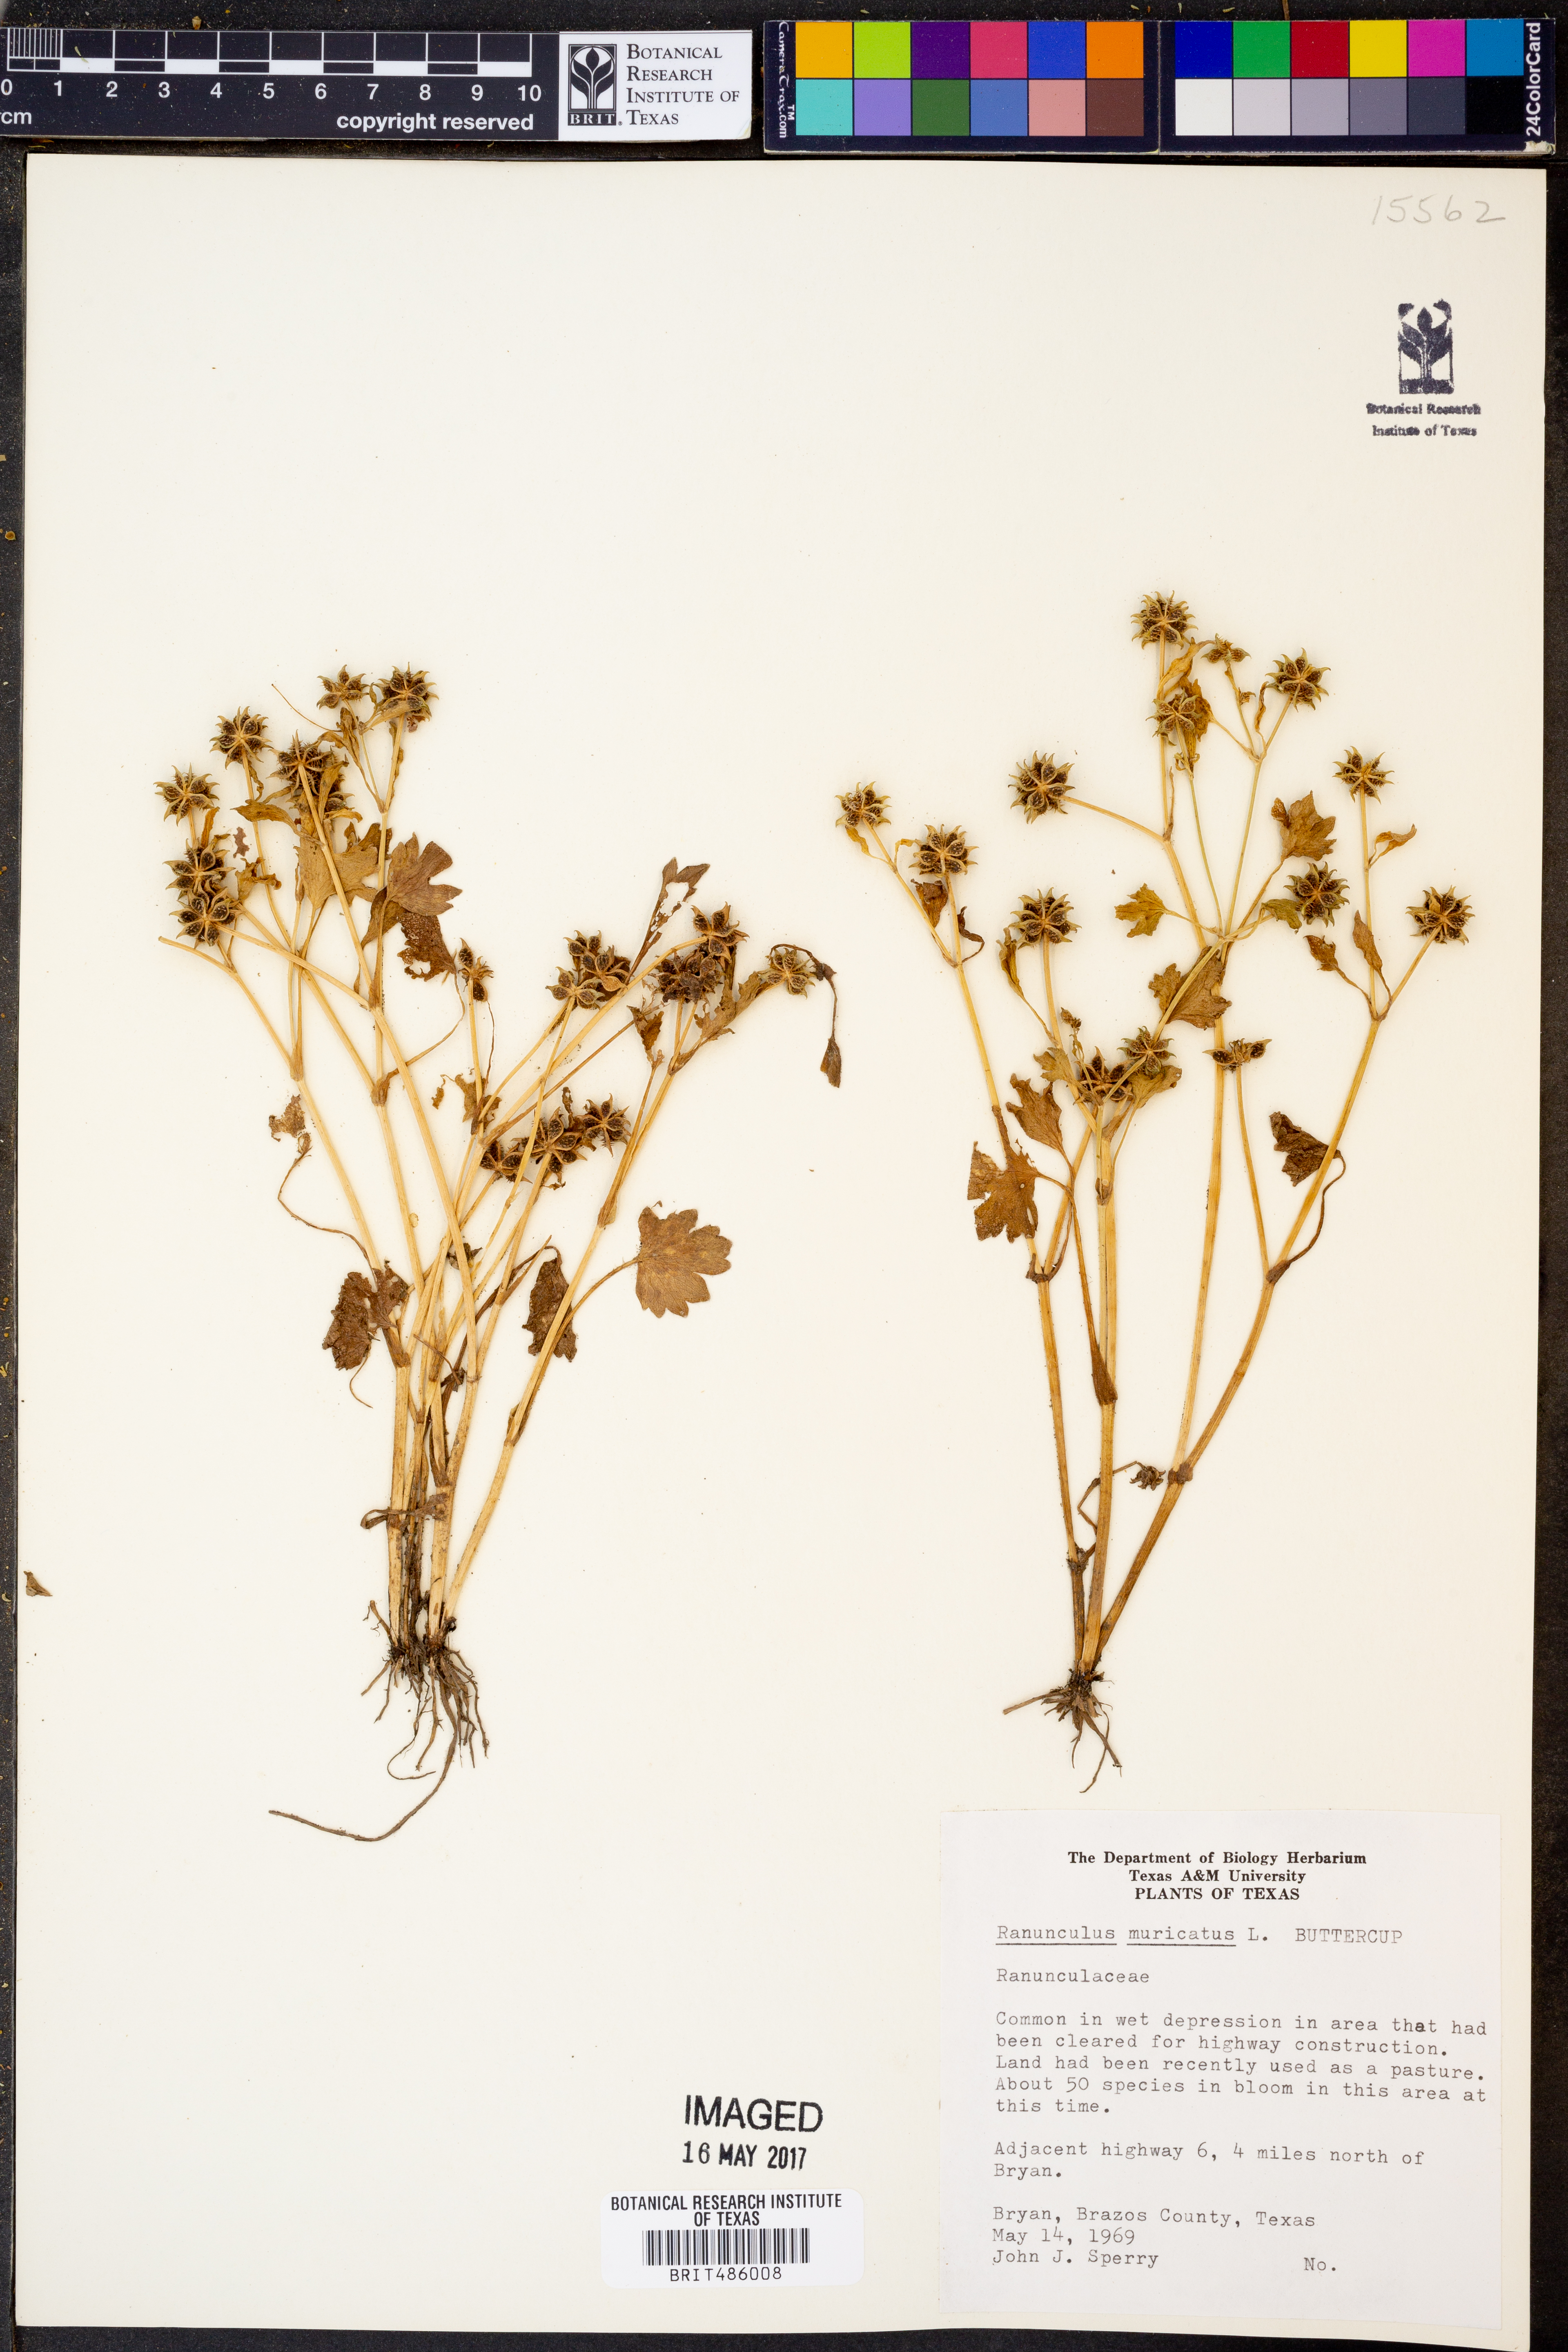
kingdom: Plantae
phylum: Tracheophyta
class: Magnoliopsida
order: Ranunculales
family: Ranunculaceae
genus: Ranunculus
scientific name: Ranunculus muricatus
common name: Rough-fruited buttercup
